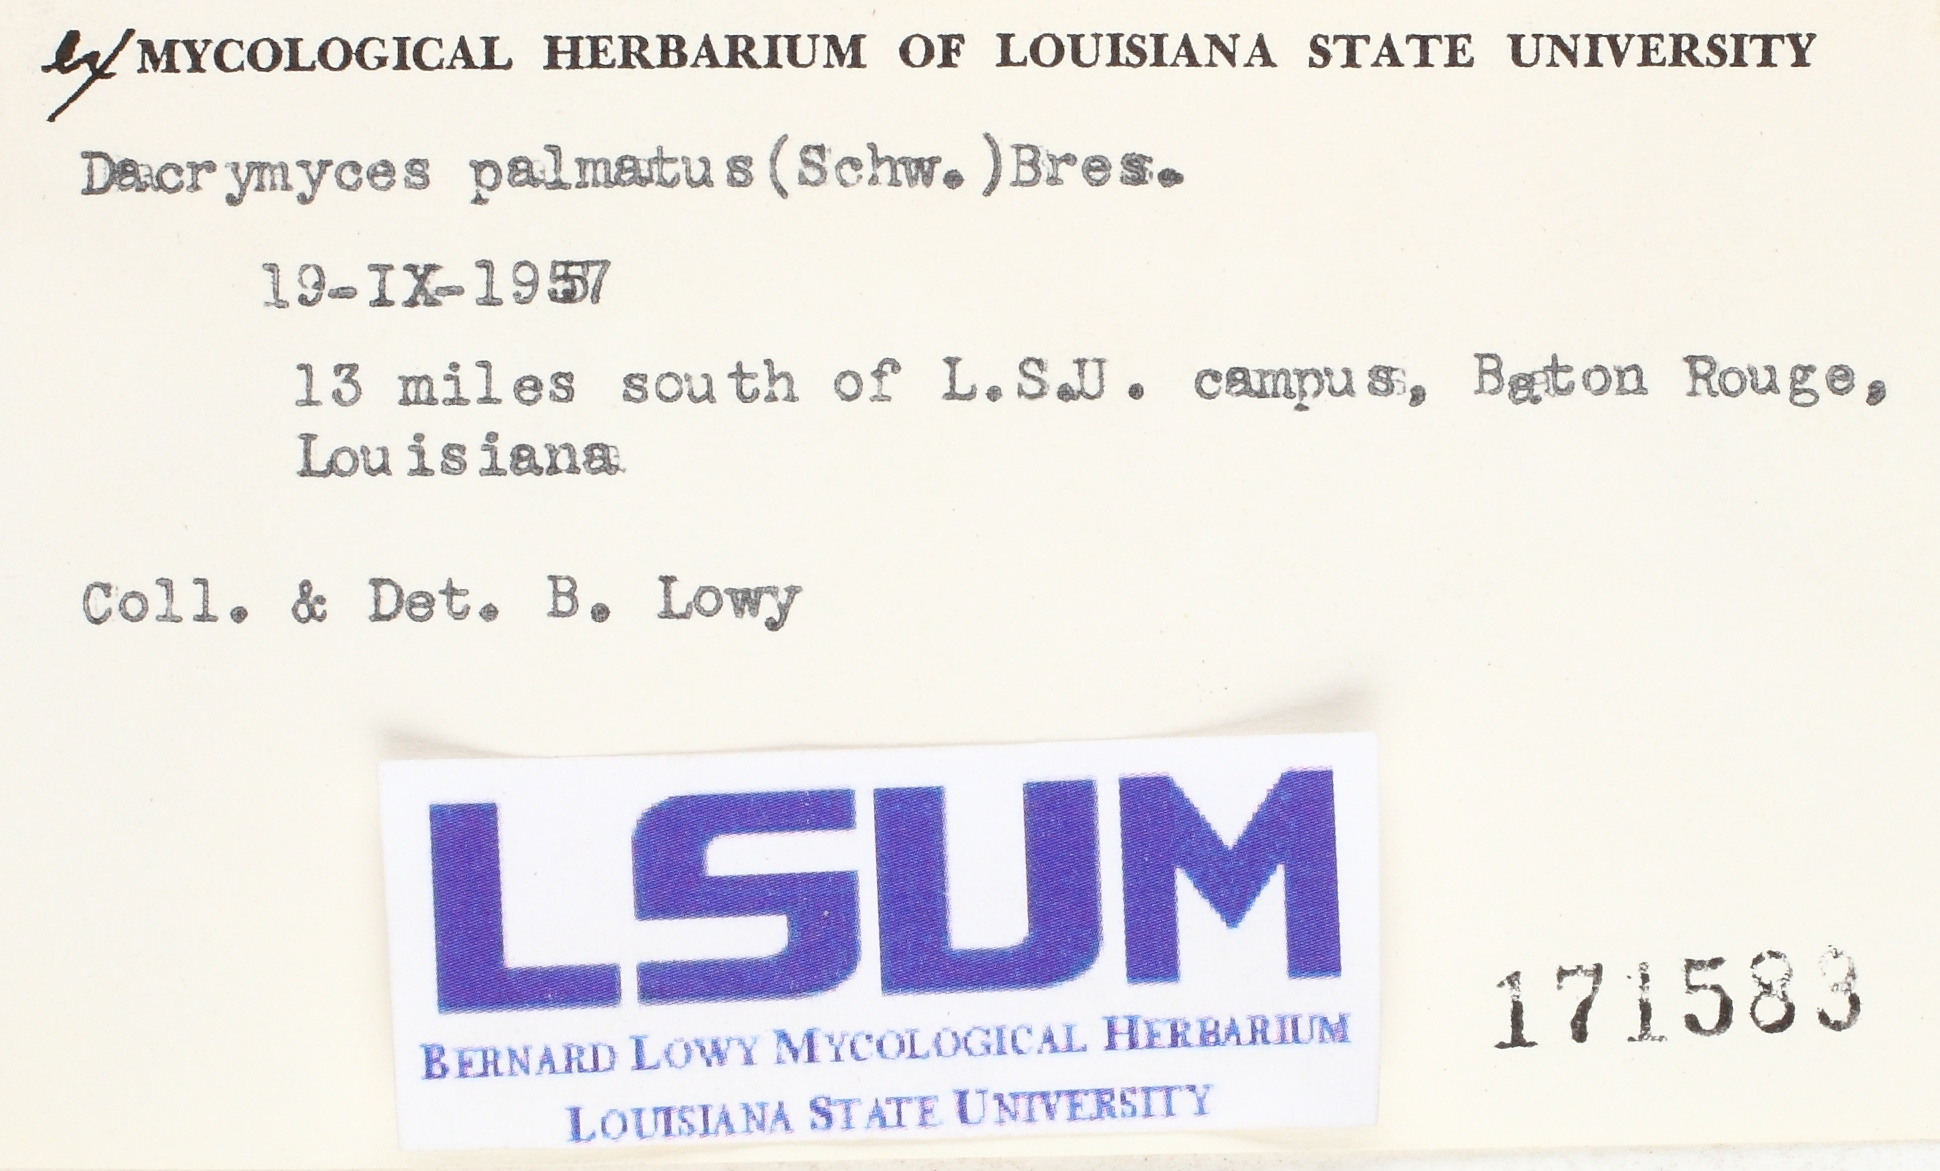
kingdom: Fungi
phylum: Basidiomycota
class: Dacrymycetes
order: Dacrymycetales
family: Dacrymycetaceae
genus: Dacrymyces
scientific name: Dacrymyces chrysospermus
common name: Orange jelly spot
